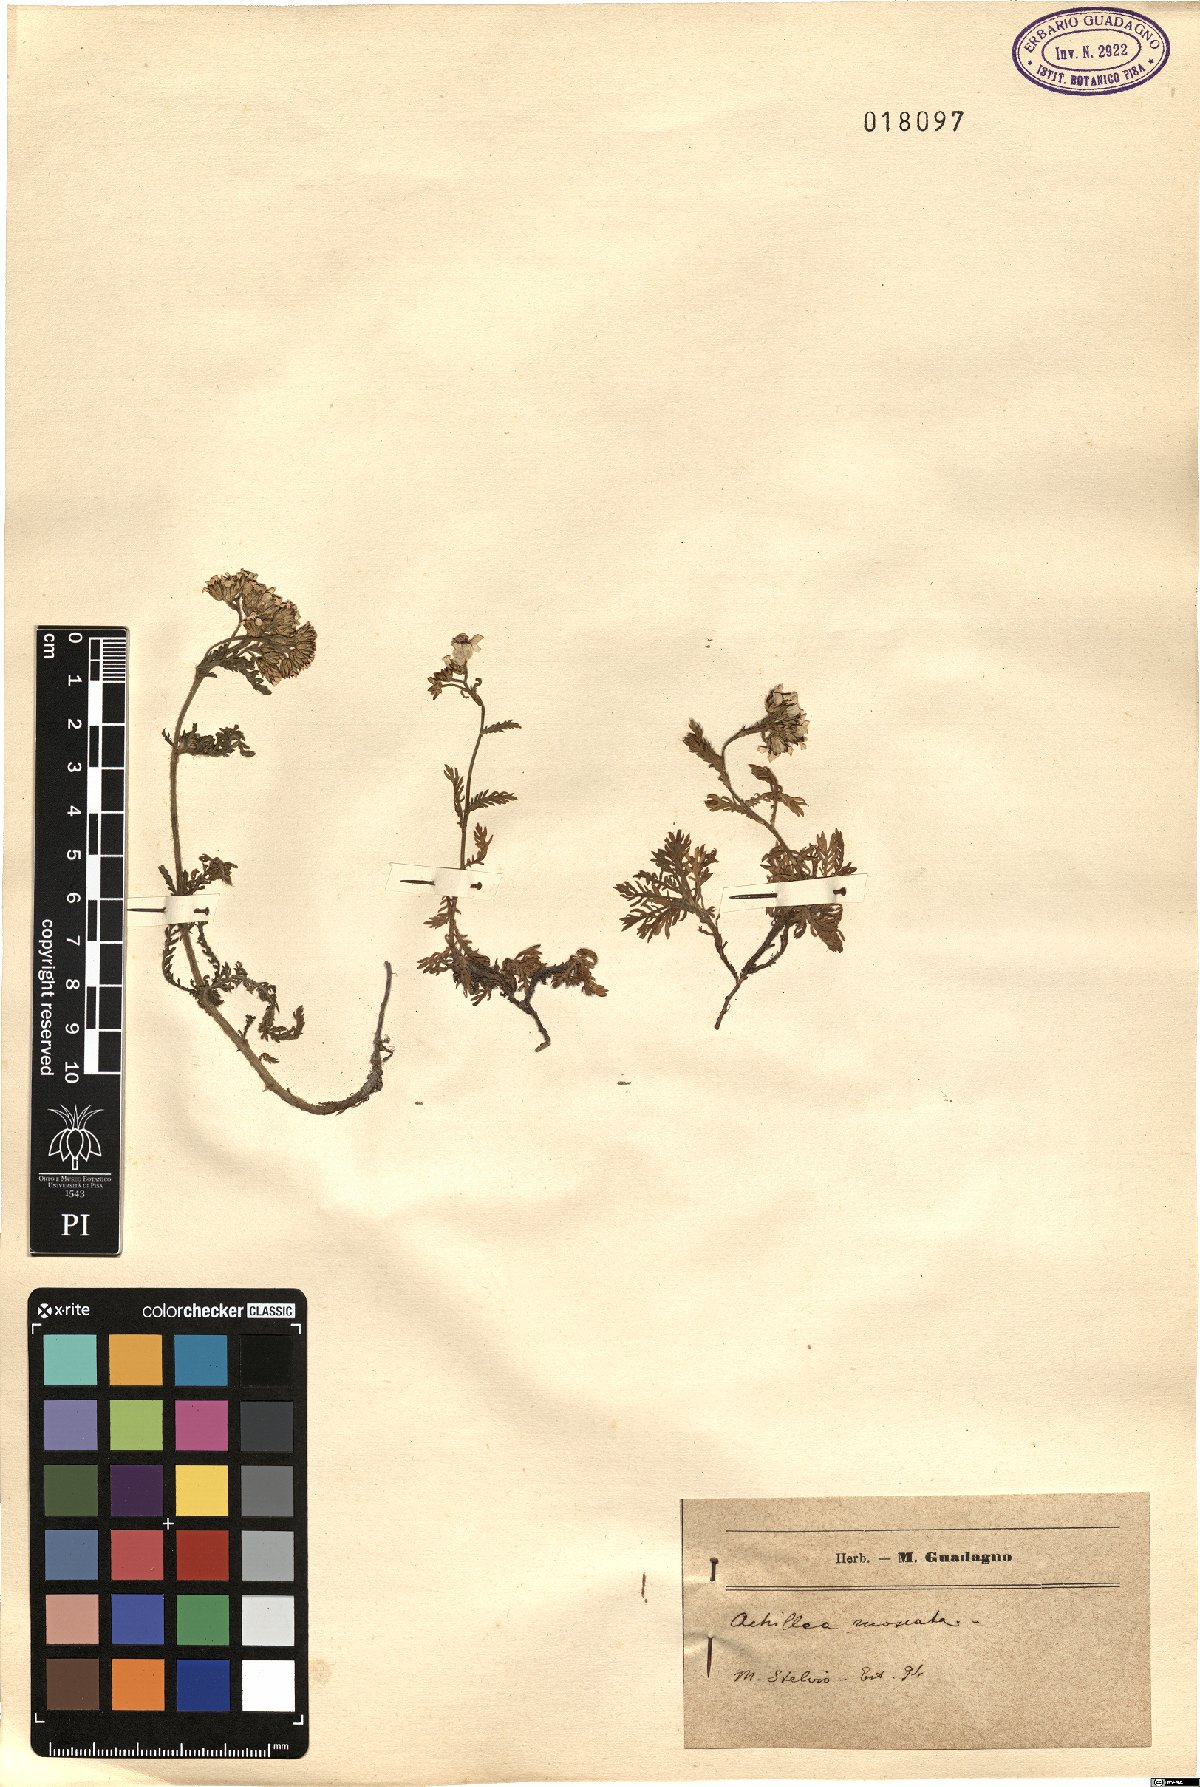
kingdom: Plantae
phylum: Tracheophyta
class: Magnoliopsida
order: Asterales
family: Asteraceae
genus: Achillea
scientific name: Achillea erba-rotta
